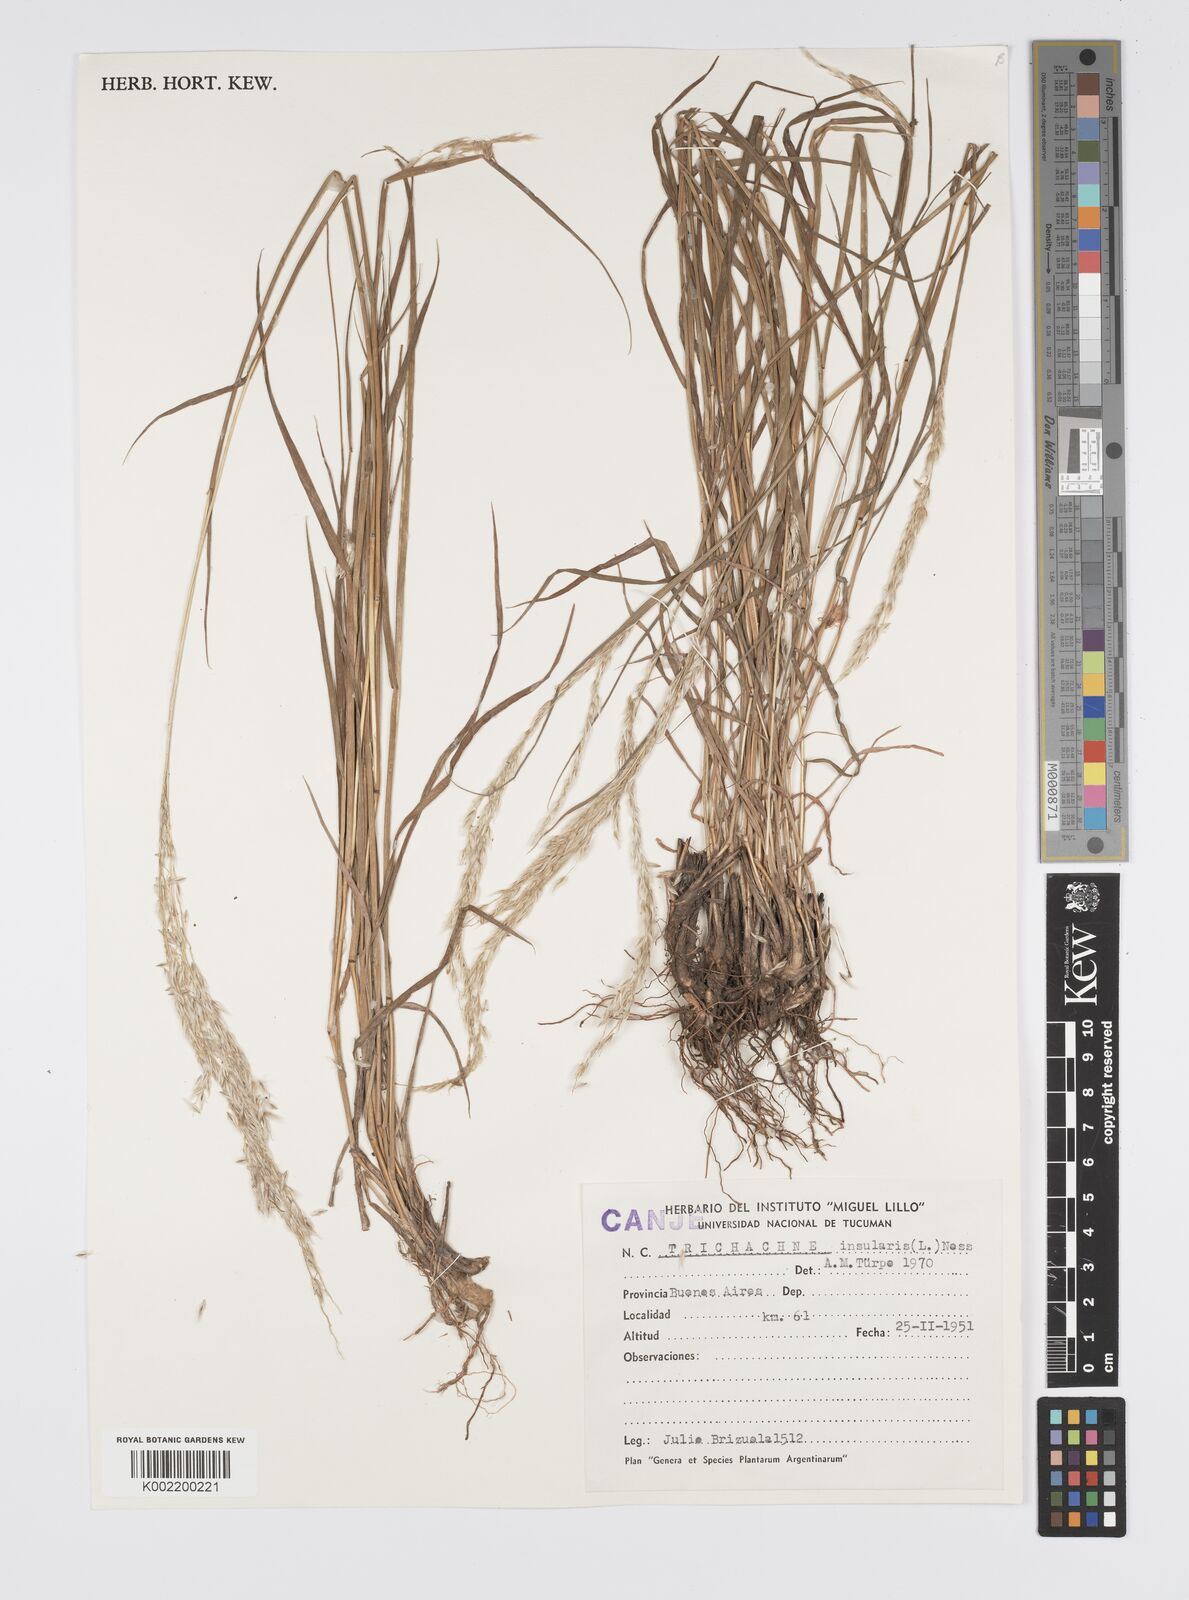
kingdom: Plantae
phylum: Tracheophyta
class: Liliopsida
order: Poales
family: Poaceae
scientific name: Poaceae
